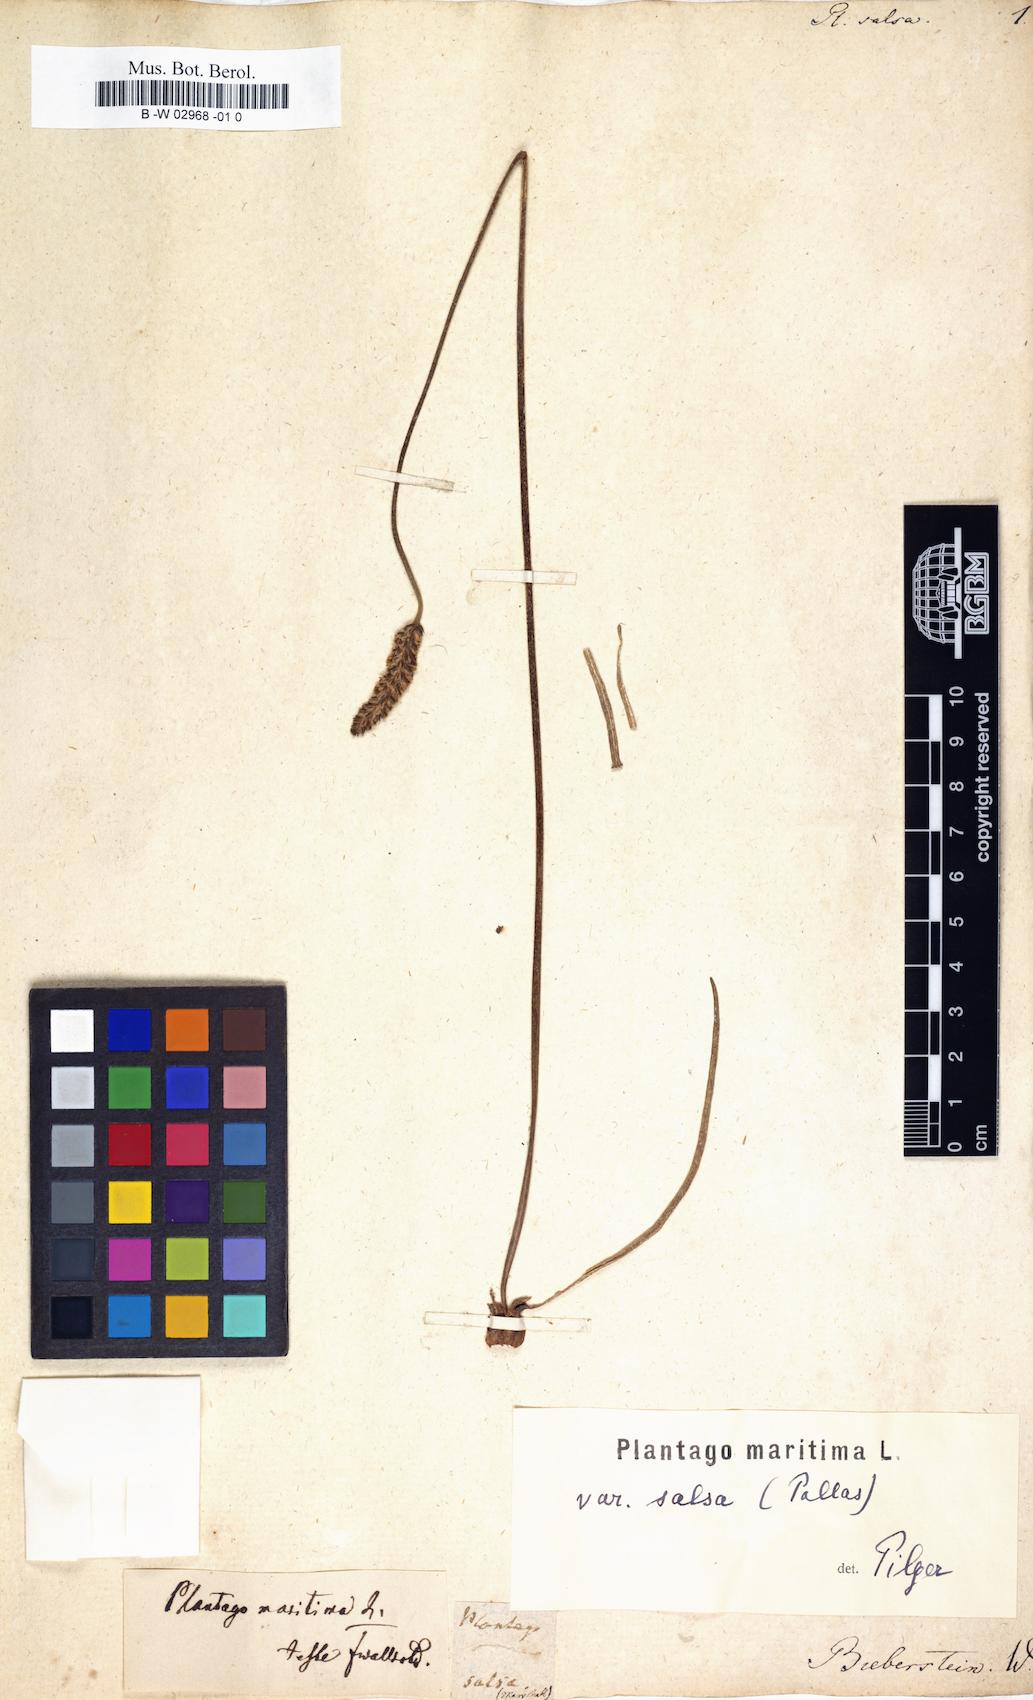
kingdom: Plantae
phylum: Tracheophyta
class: Magnoliopsida
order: Lamiales
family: Plantaginaceae
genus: Plantago
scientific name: Plantago salsa
